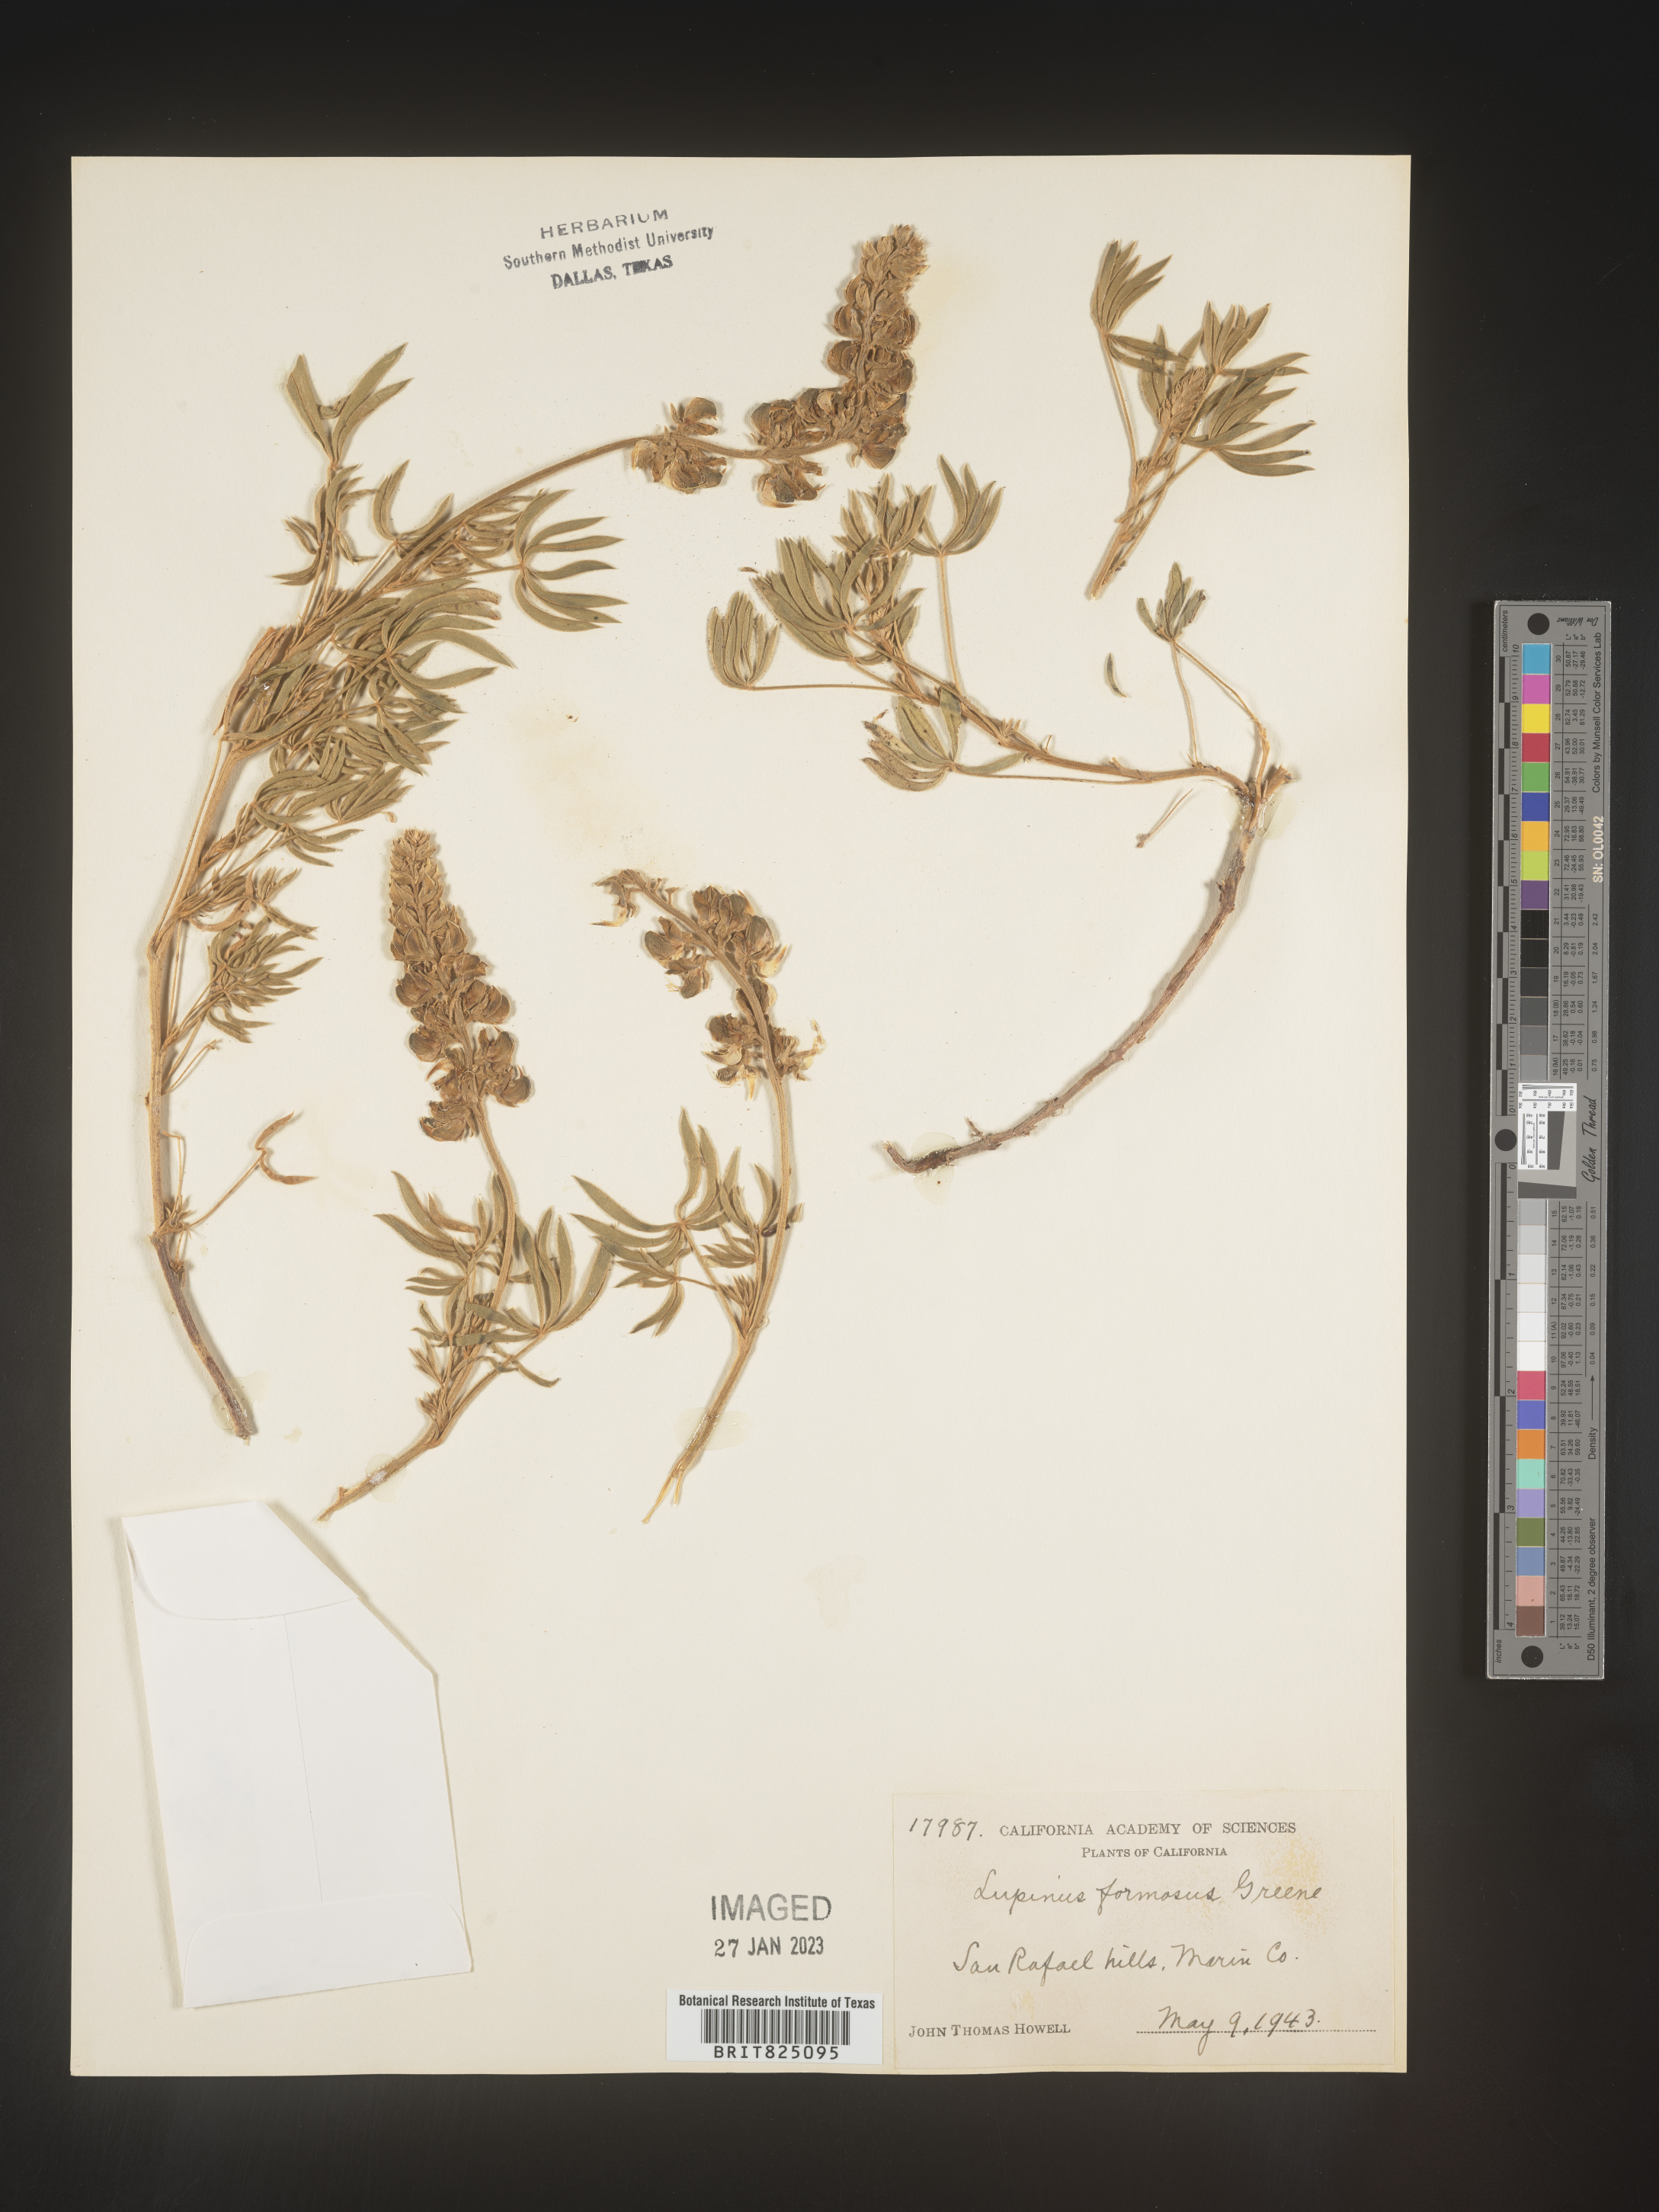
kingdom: Plantae
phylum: Tracheophyta
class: Magnoliopsida
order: Fabales
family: Fabaceae
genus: Lupinus
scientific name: Lupinus
